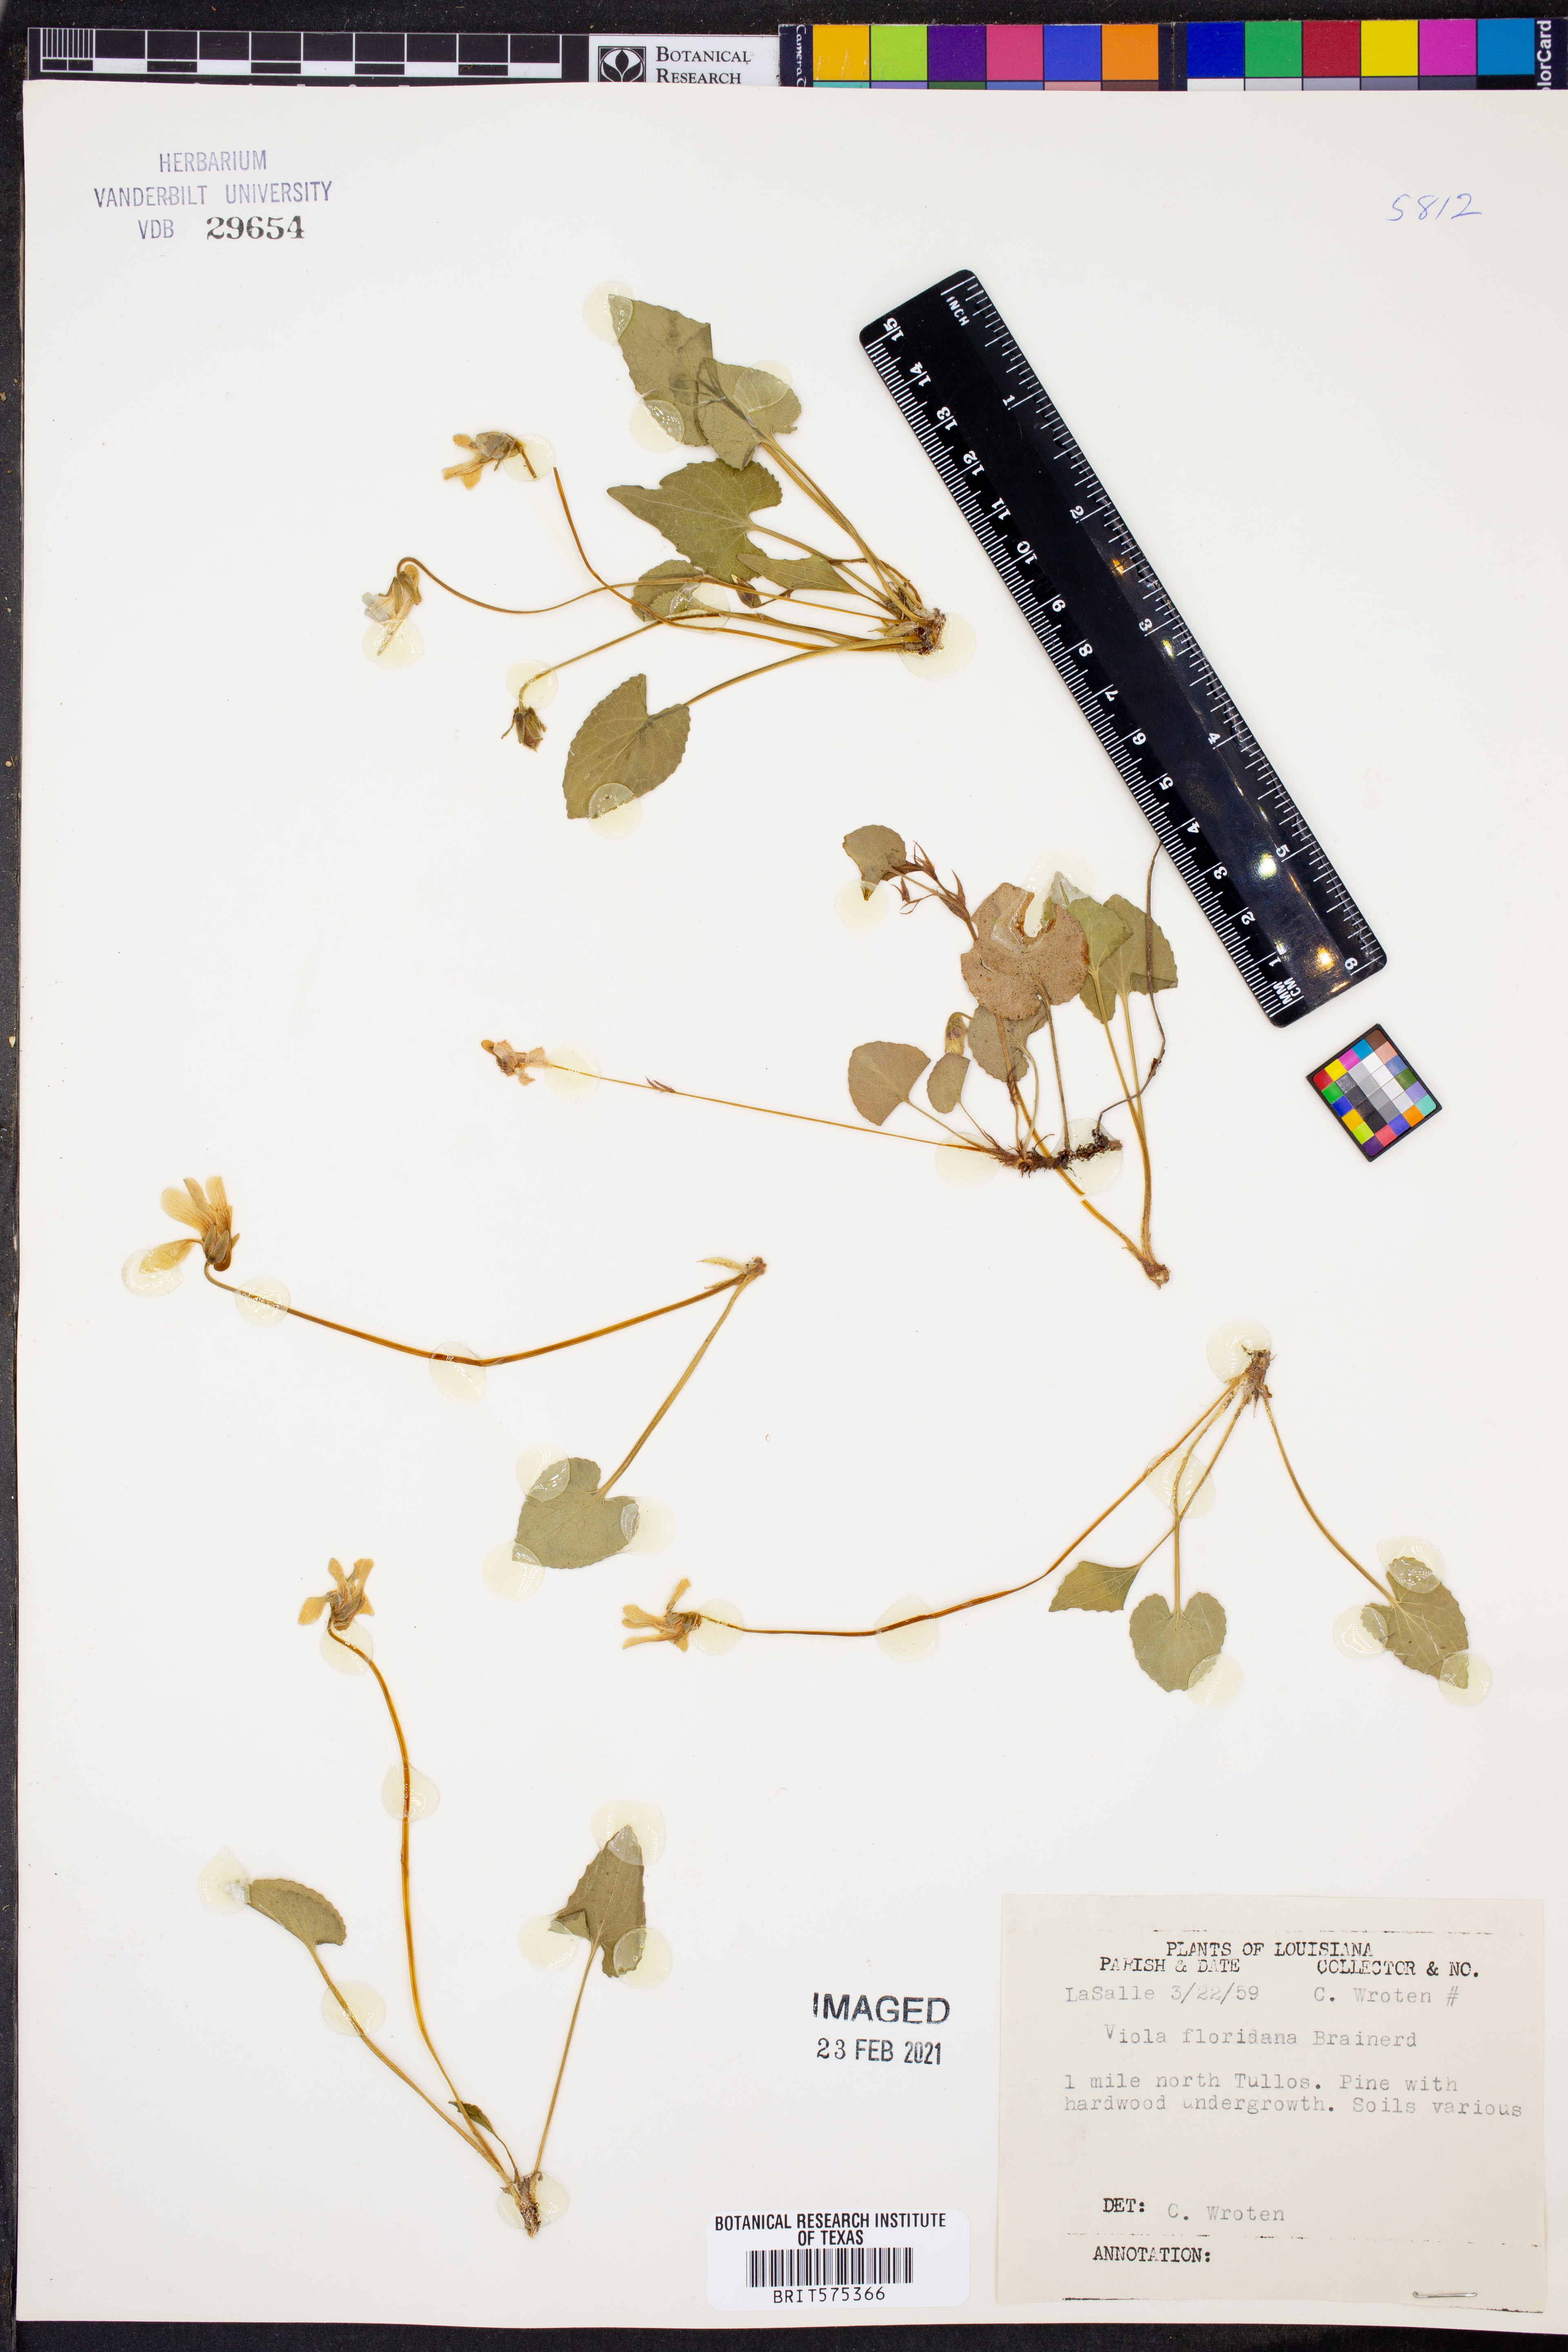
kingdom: Plantae
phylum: Tracheophyta
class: Magnoliopsida
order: Malpighiales
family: Violaceae
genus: Viola
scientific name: Viola floridana
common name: Florida violet
